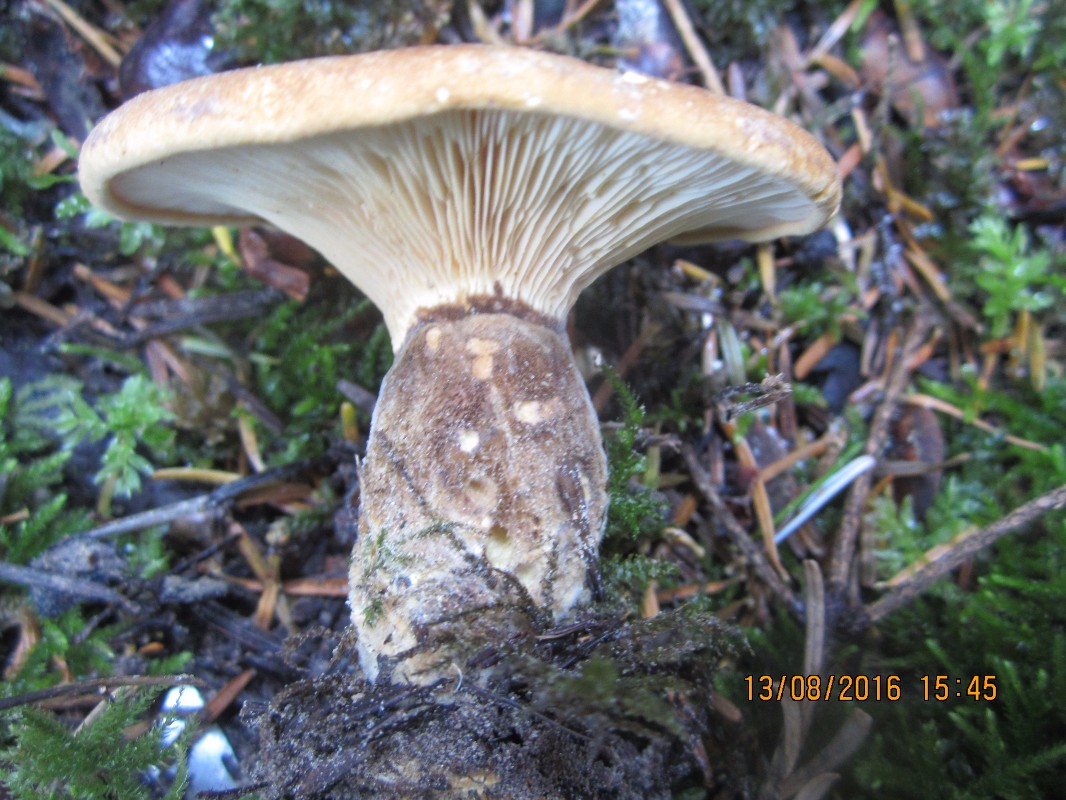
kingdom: Fungi
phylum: Basidiomycota
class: Agaricomycetes
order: Boletales
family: Tapinellaceae
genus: Tapinella
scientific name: Tapinella atrotomentosa
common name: sortfiltet viftesvamp
